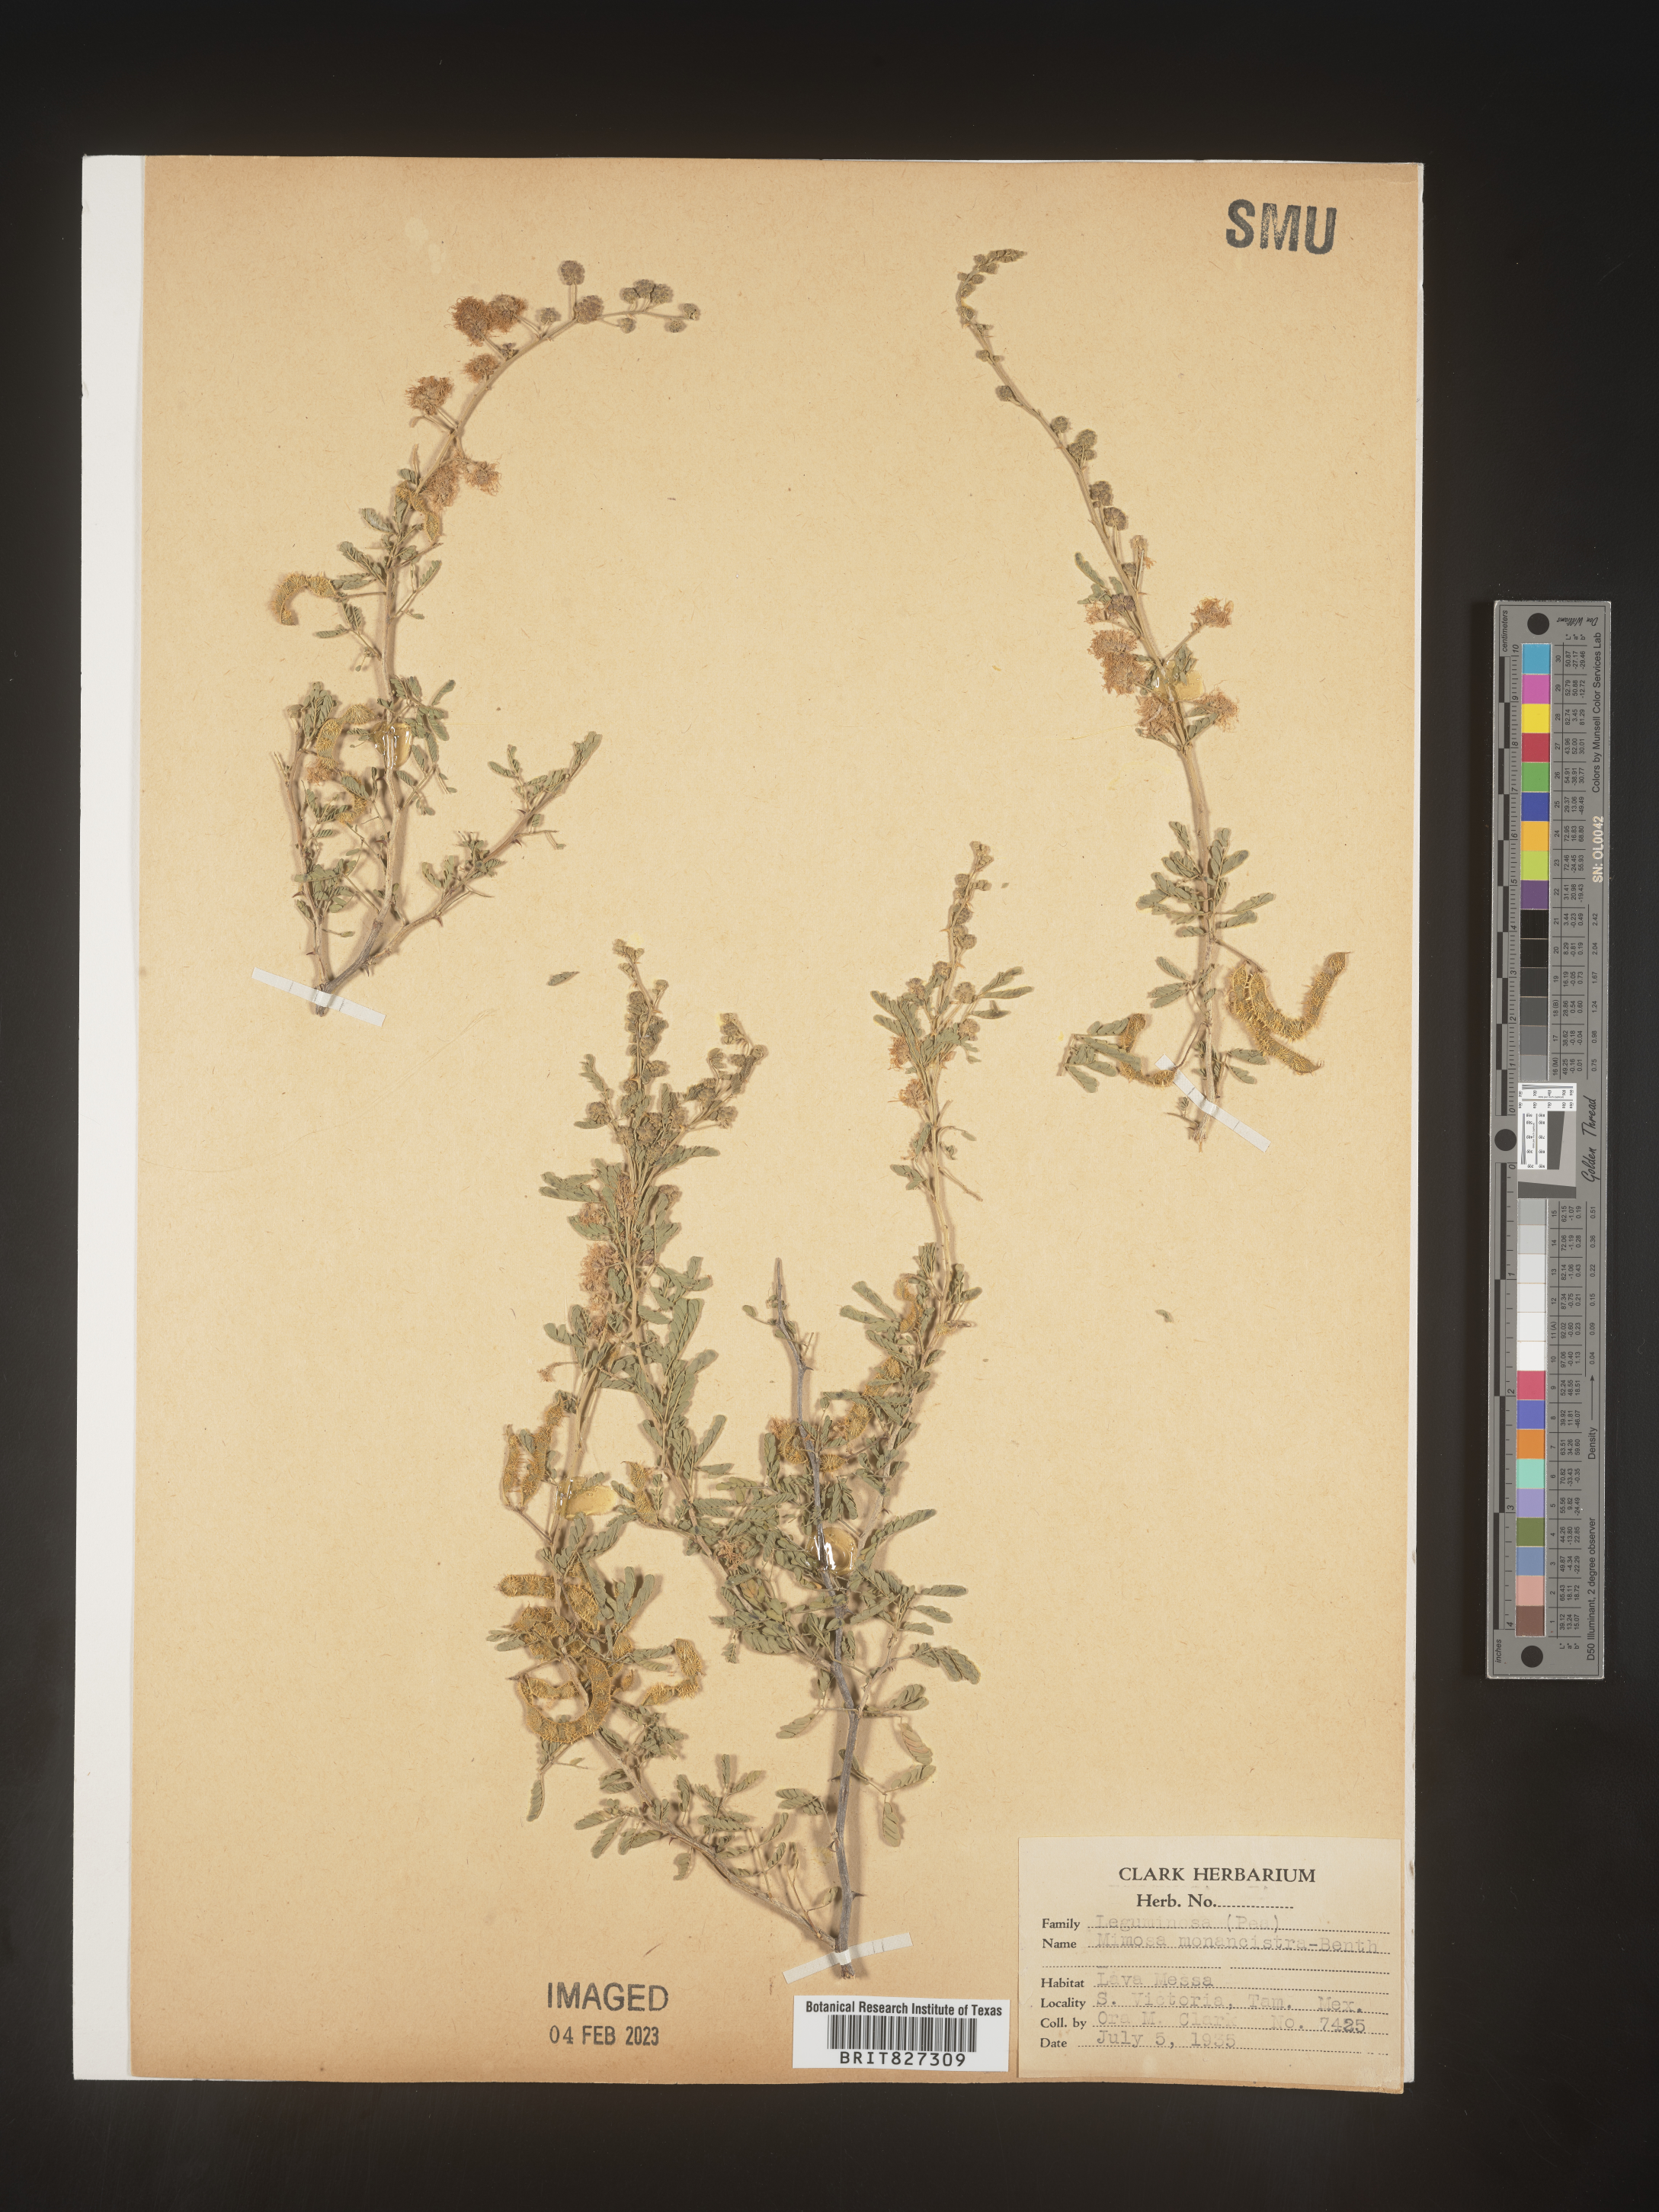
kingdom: Plantae
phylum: Tracheophyta
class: Magnoliopsida
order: Fabales
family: Fabaceae
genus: Mimosa
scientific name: Mimosa
